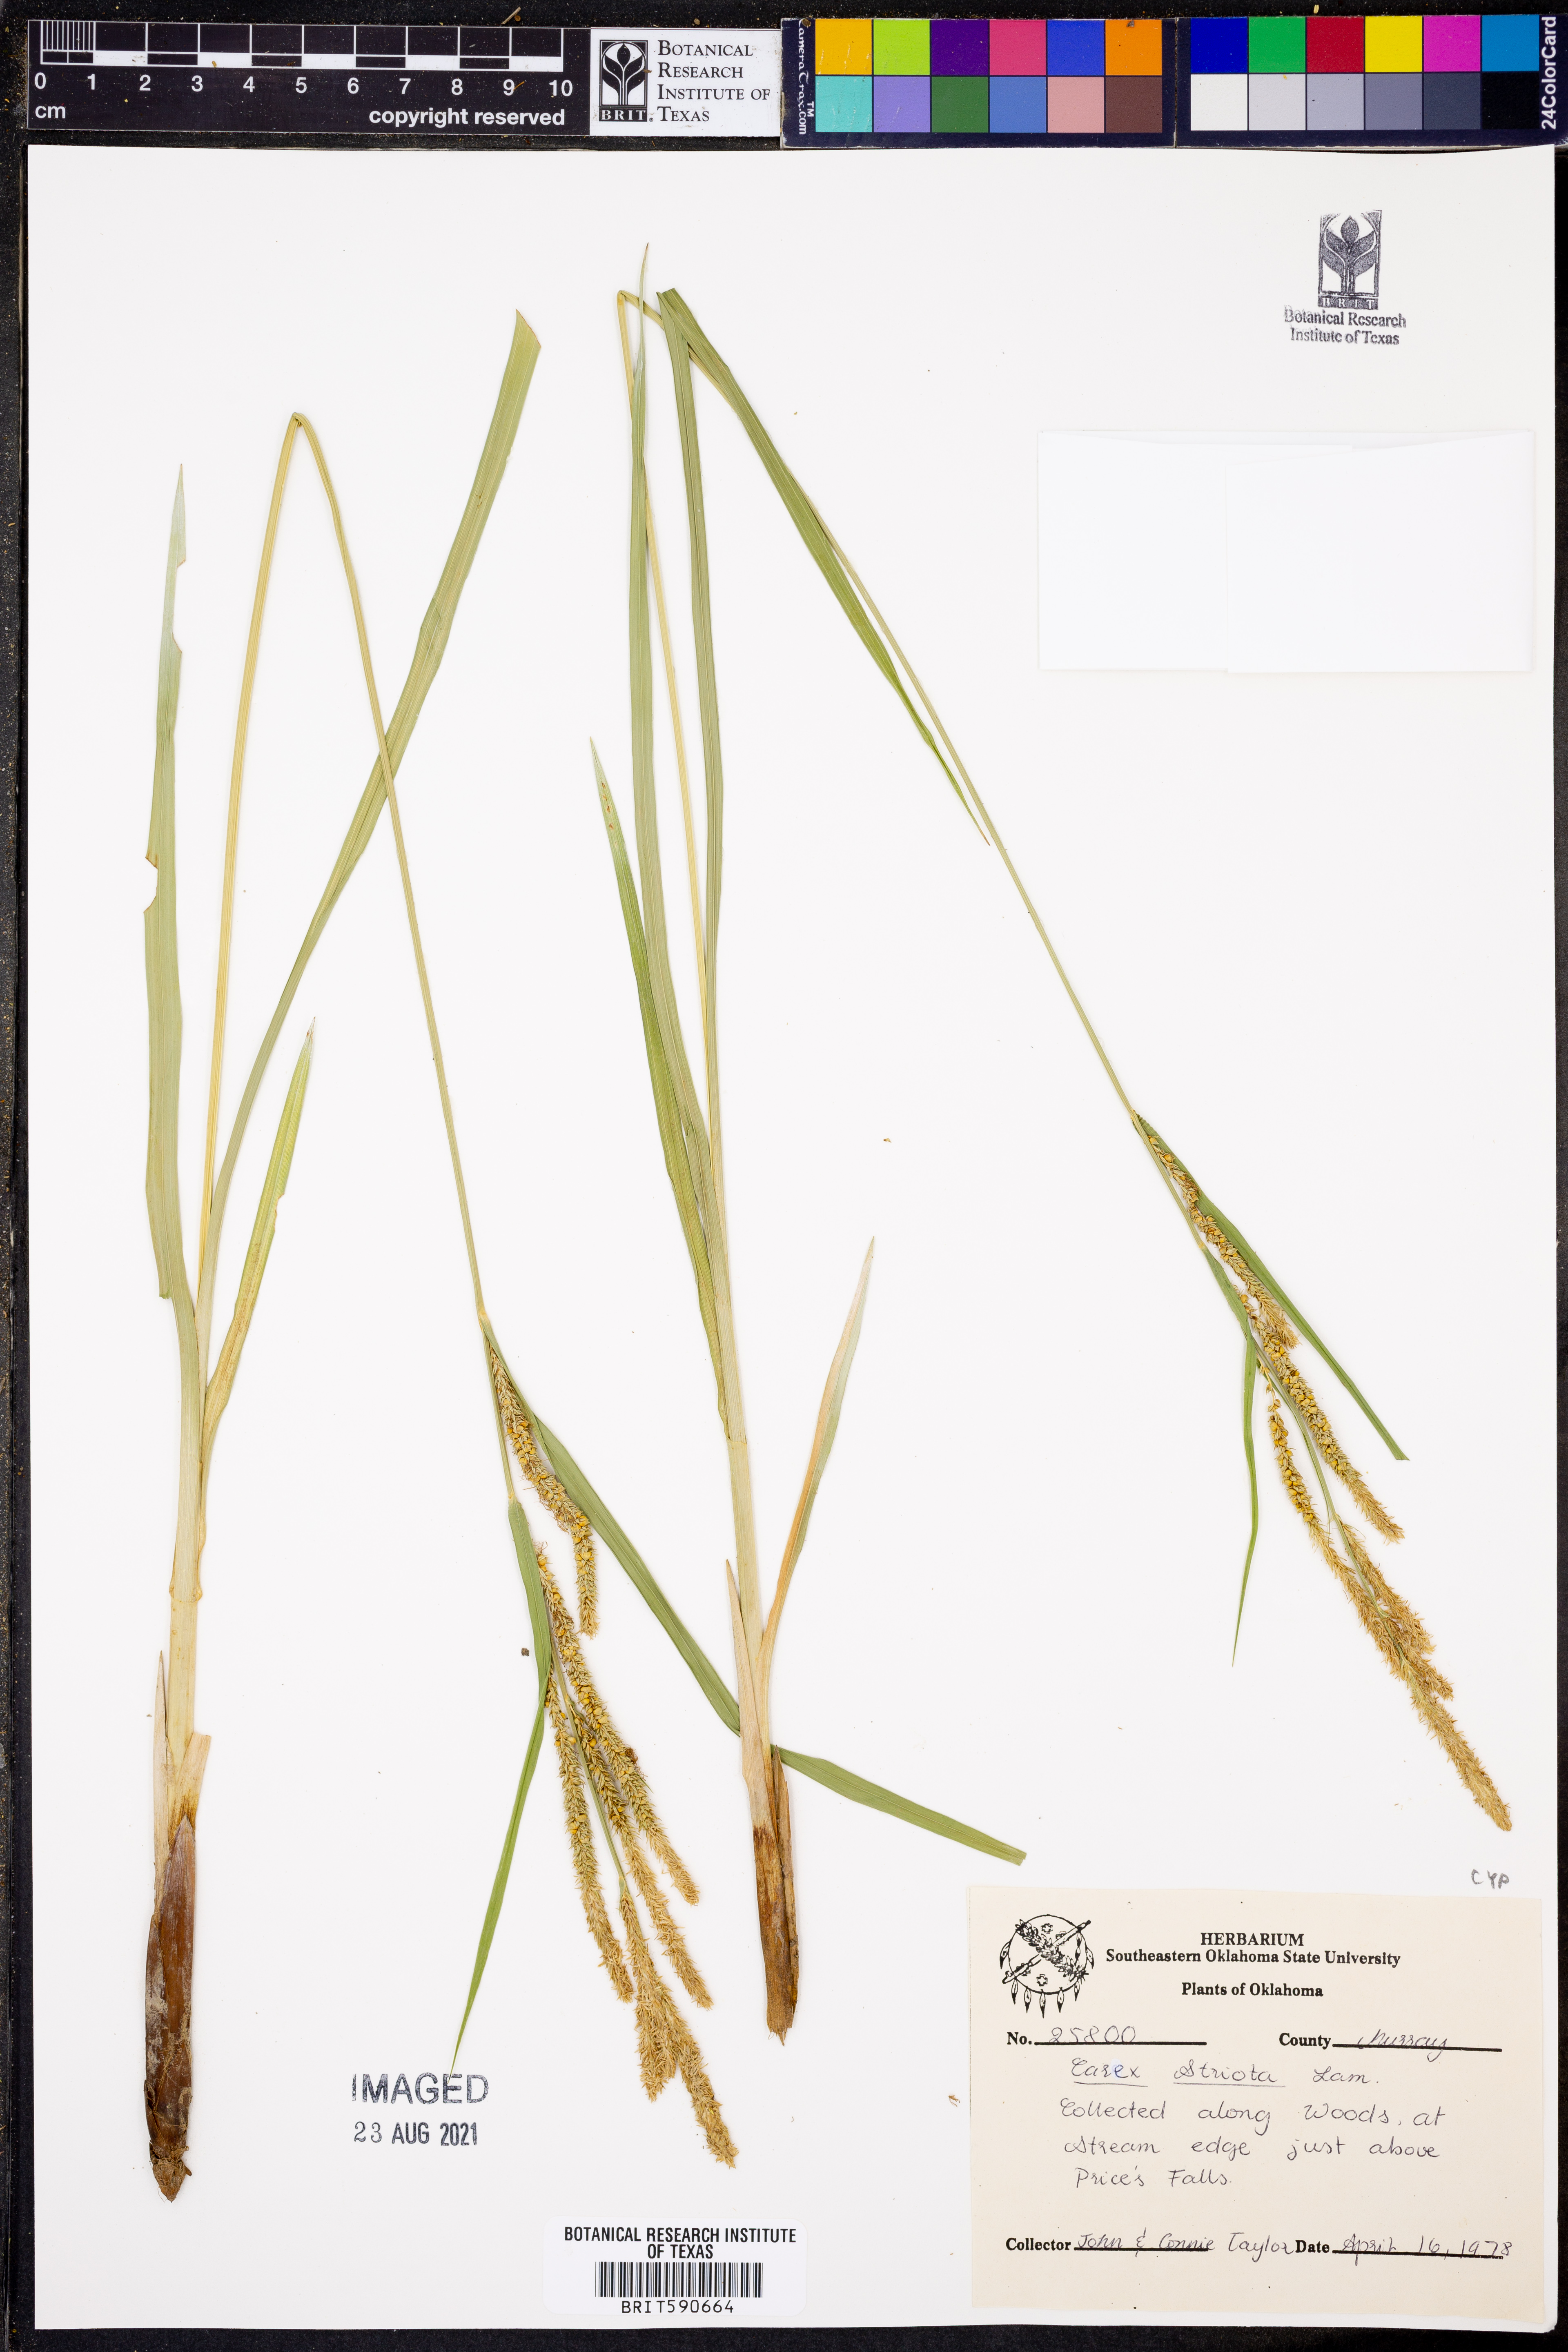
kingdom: Plantae
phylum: Tracheophyta
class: Liliopsida
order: Poales
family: Cyperaceae
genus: Carex
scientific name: Carex stricta
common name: Hummock sedge
